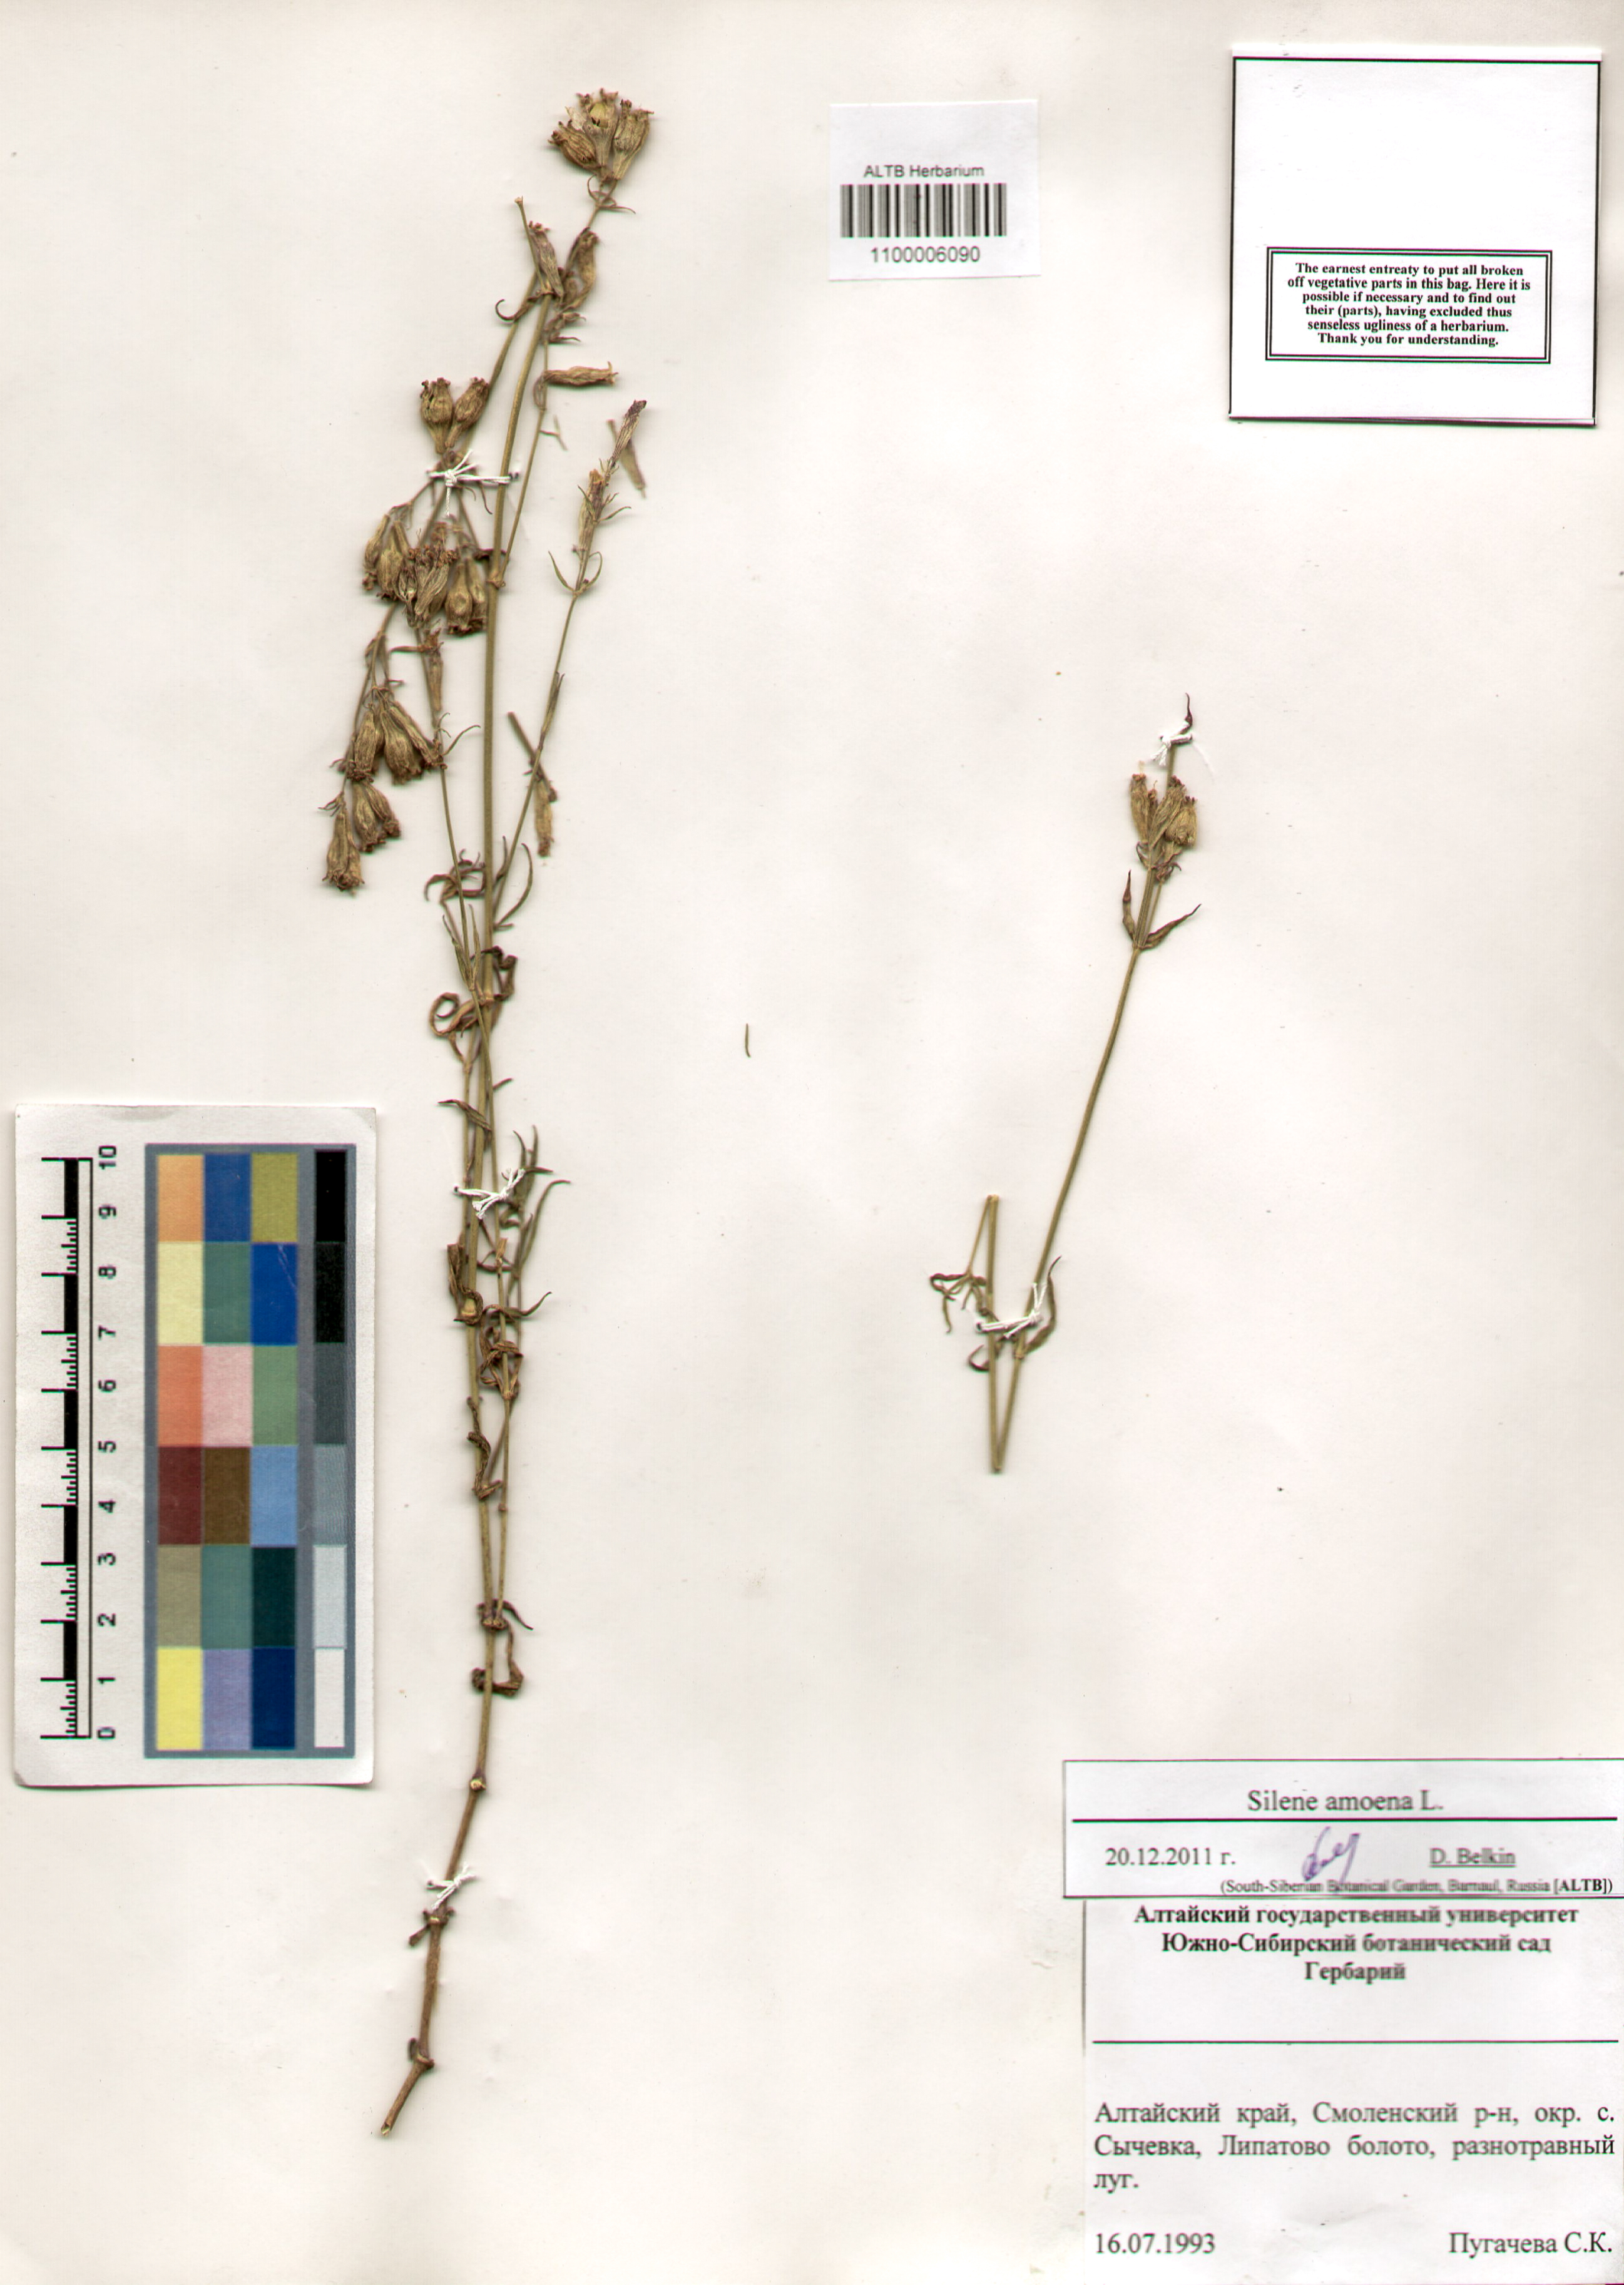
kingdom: Plantae
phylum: Tracheophyta
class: Magnoliopsida
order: Caryophyllales
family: Caryophyllaceae
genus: Silene
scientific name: Silene amoena
